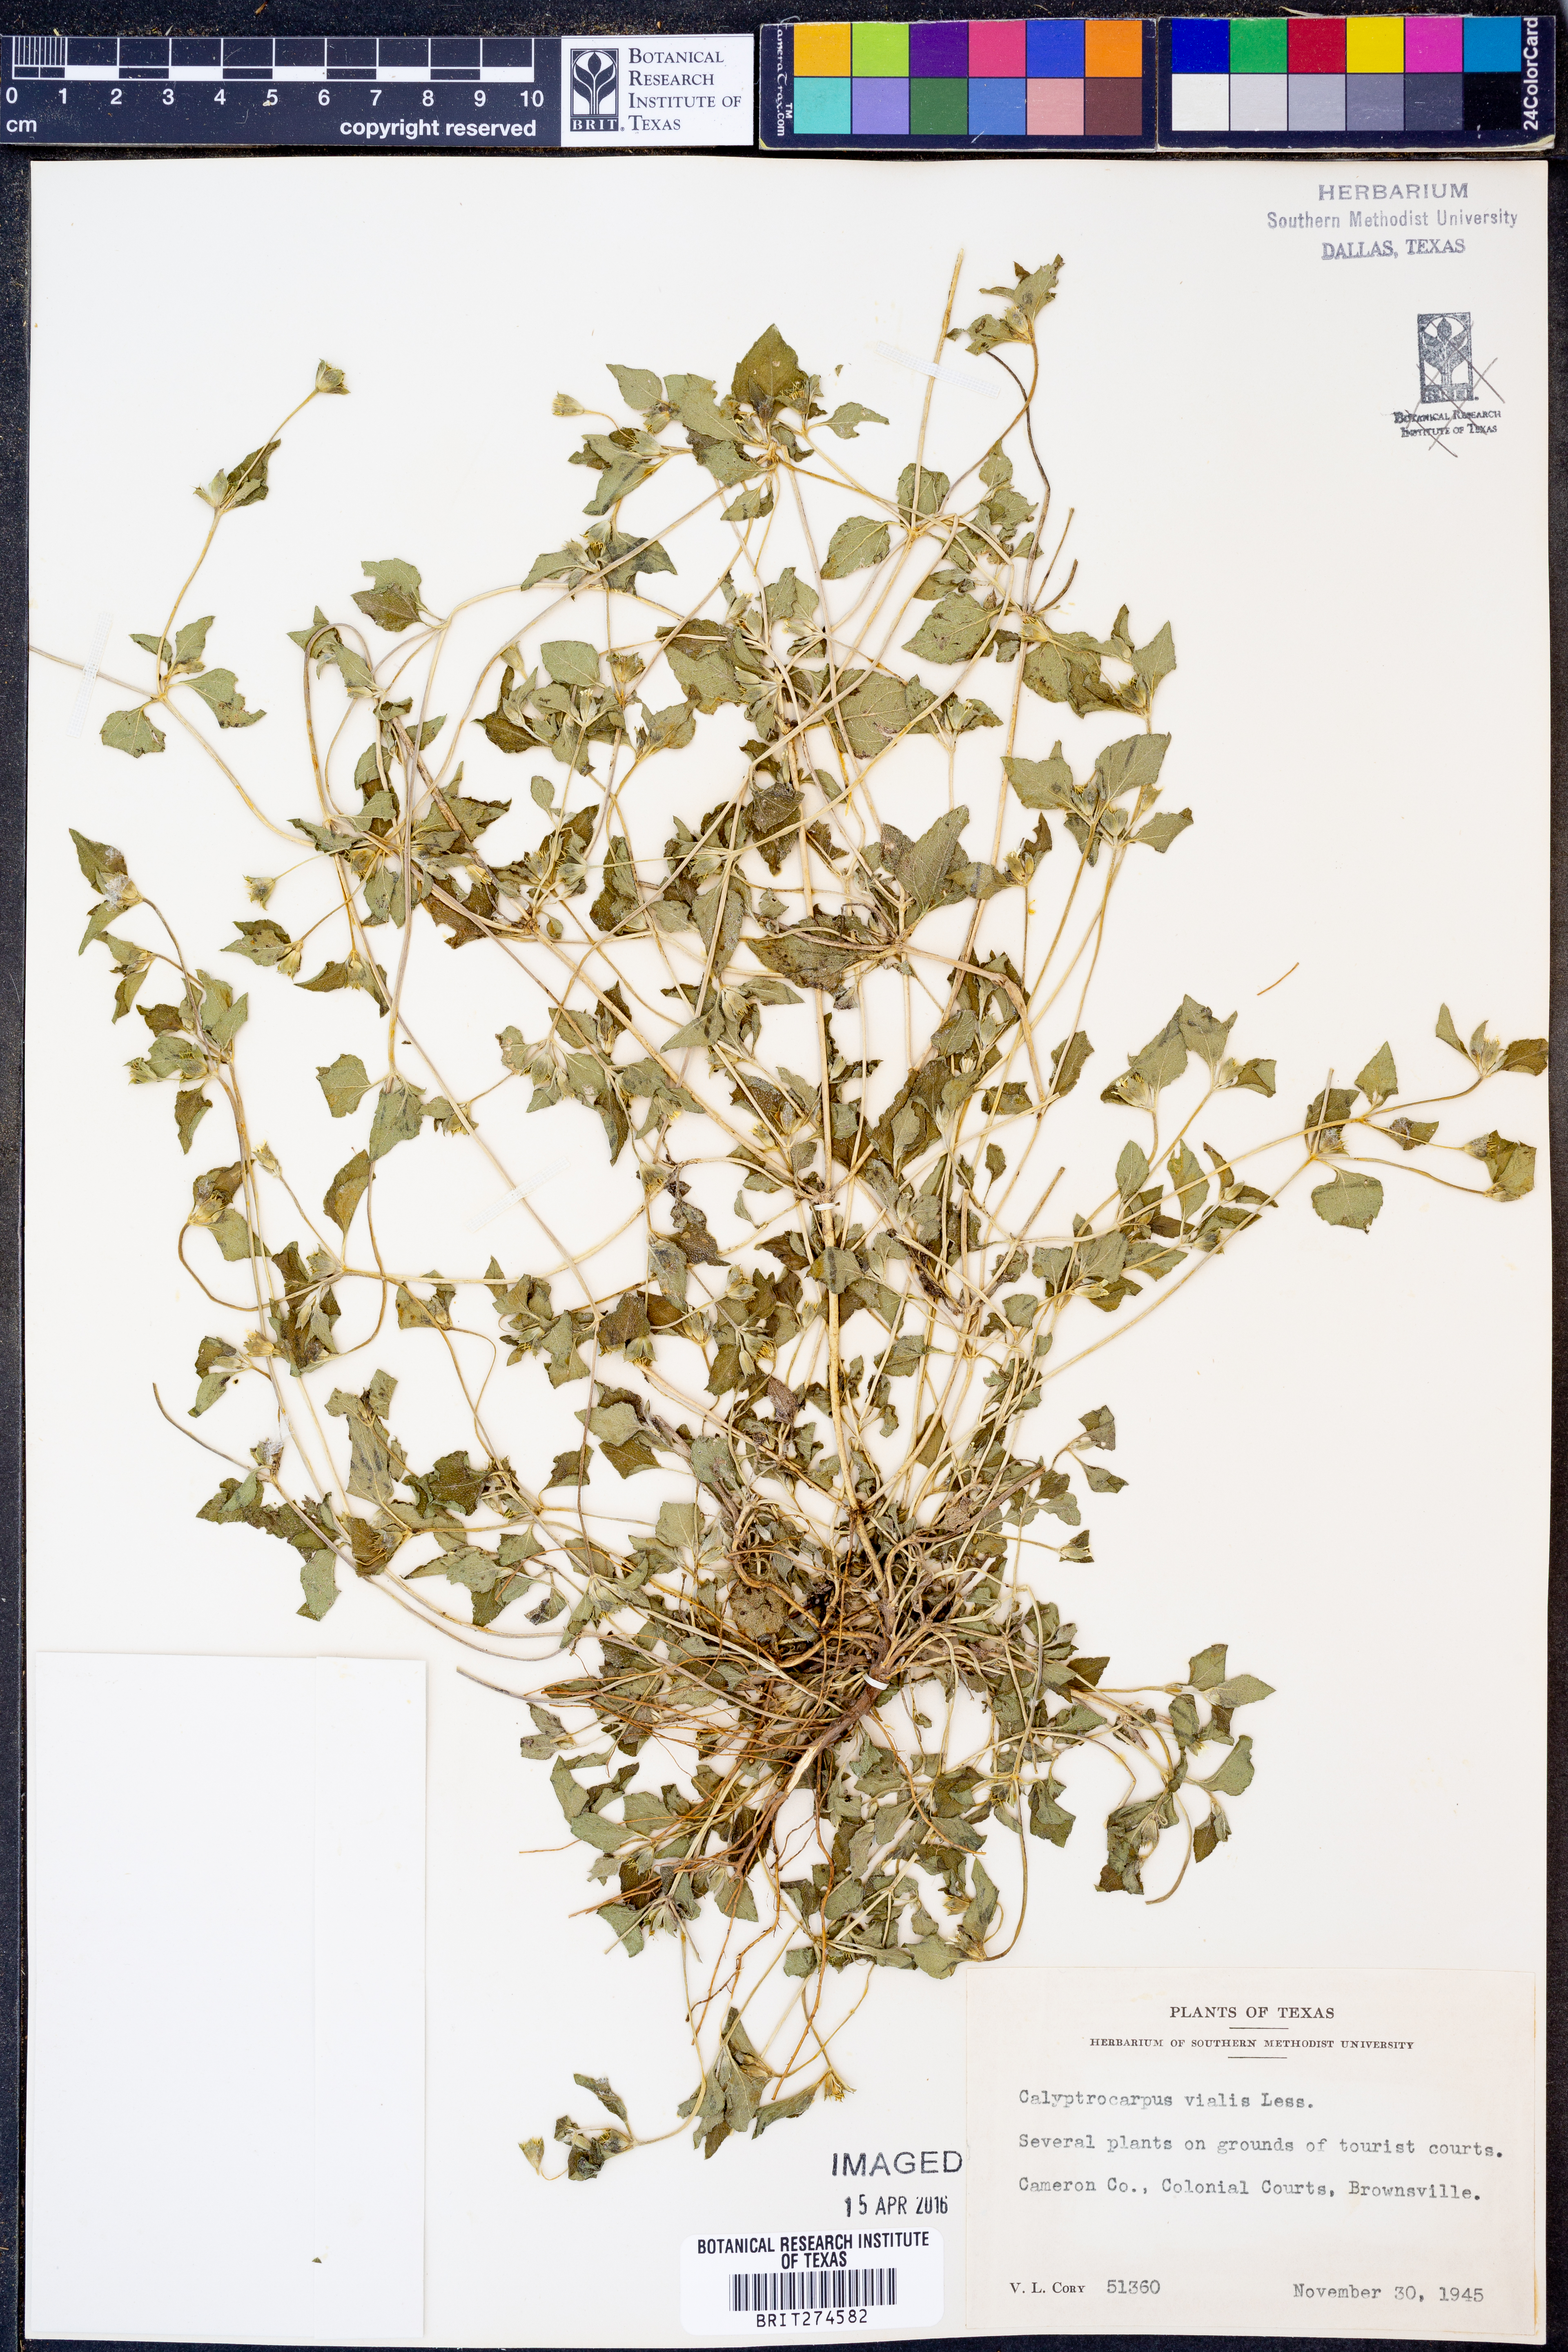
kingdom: Plantae
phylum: Tracheophyta
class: Magnoliopsida
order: Asterales
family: Asteraceae
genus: Calyptocarpus
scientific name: Calyptocarpus vialis
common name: Straggler daisy
